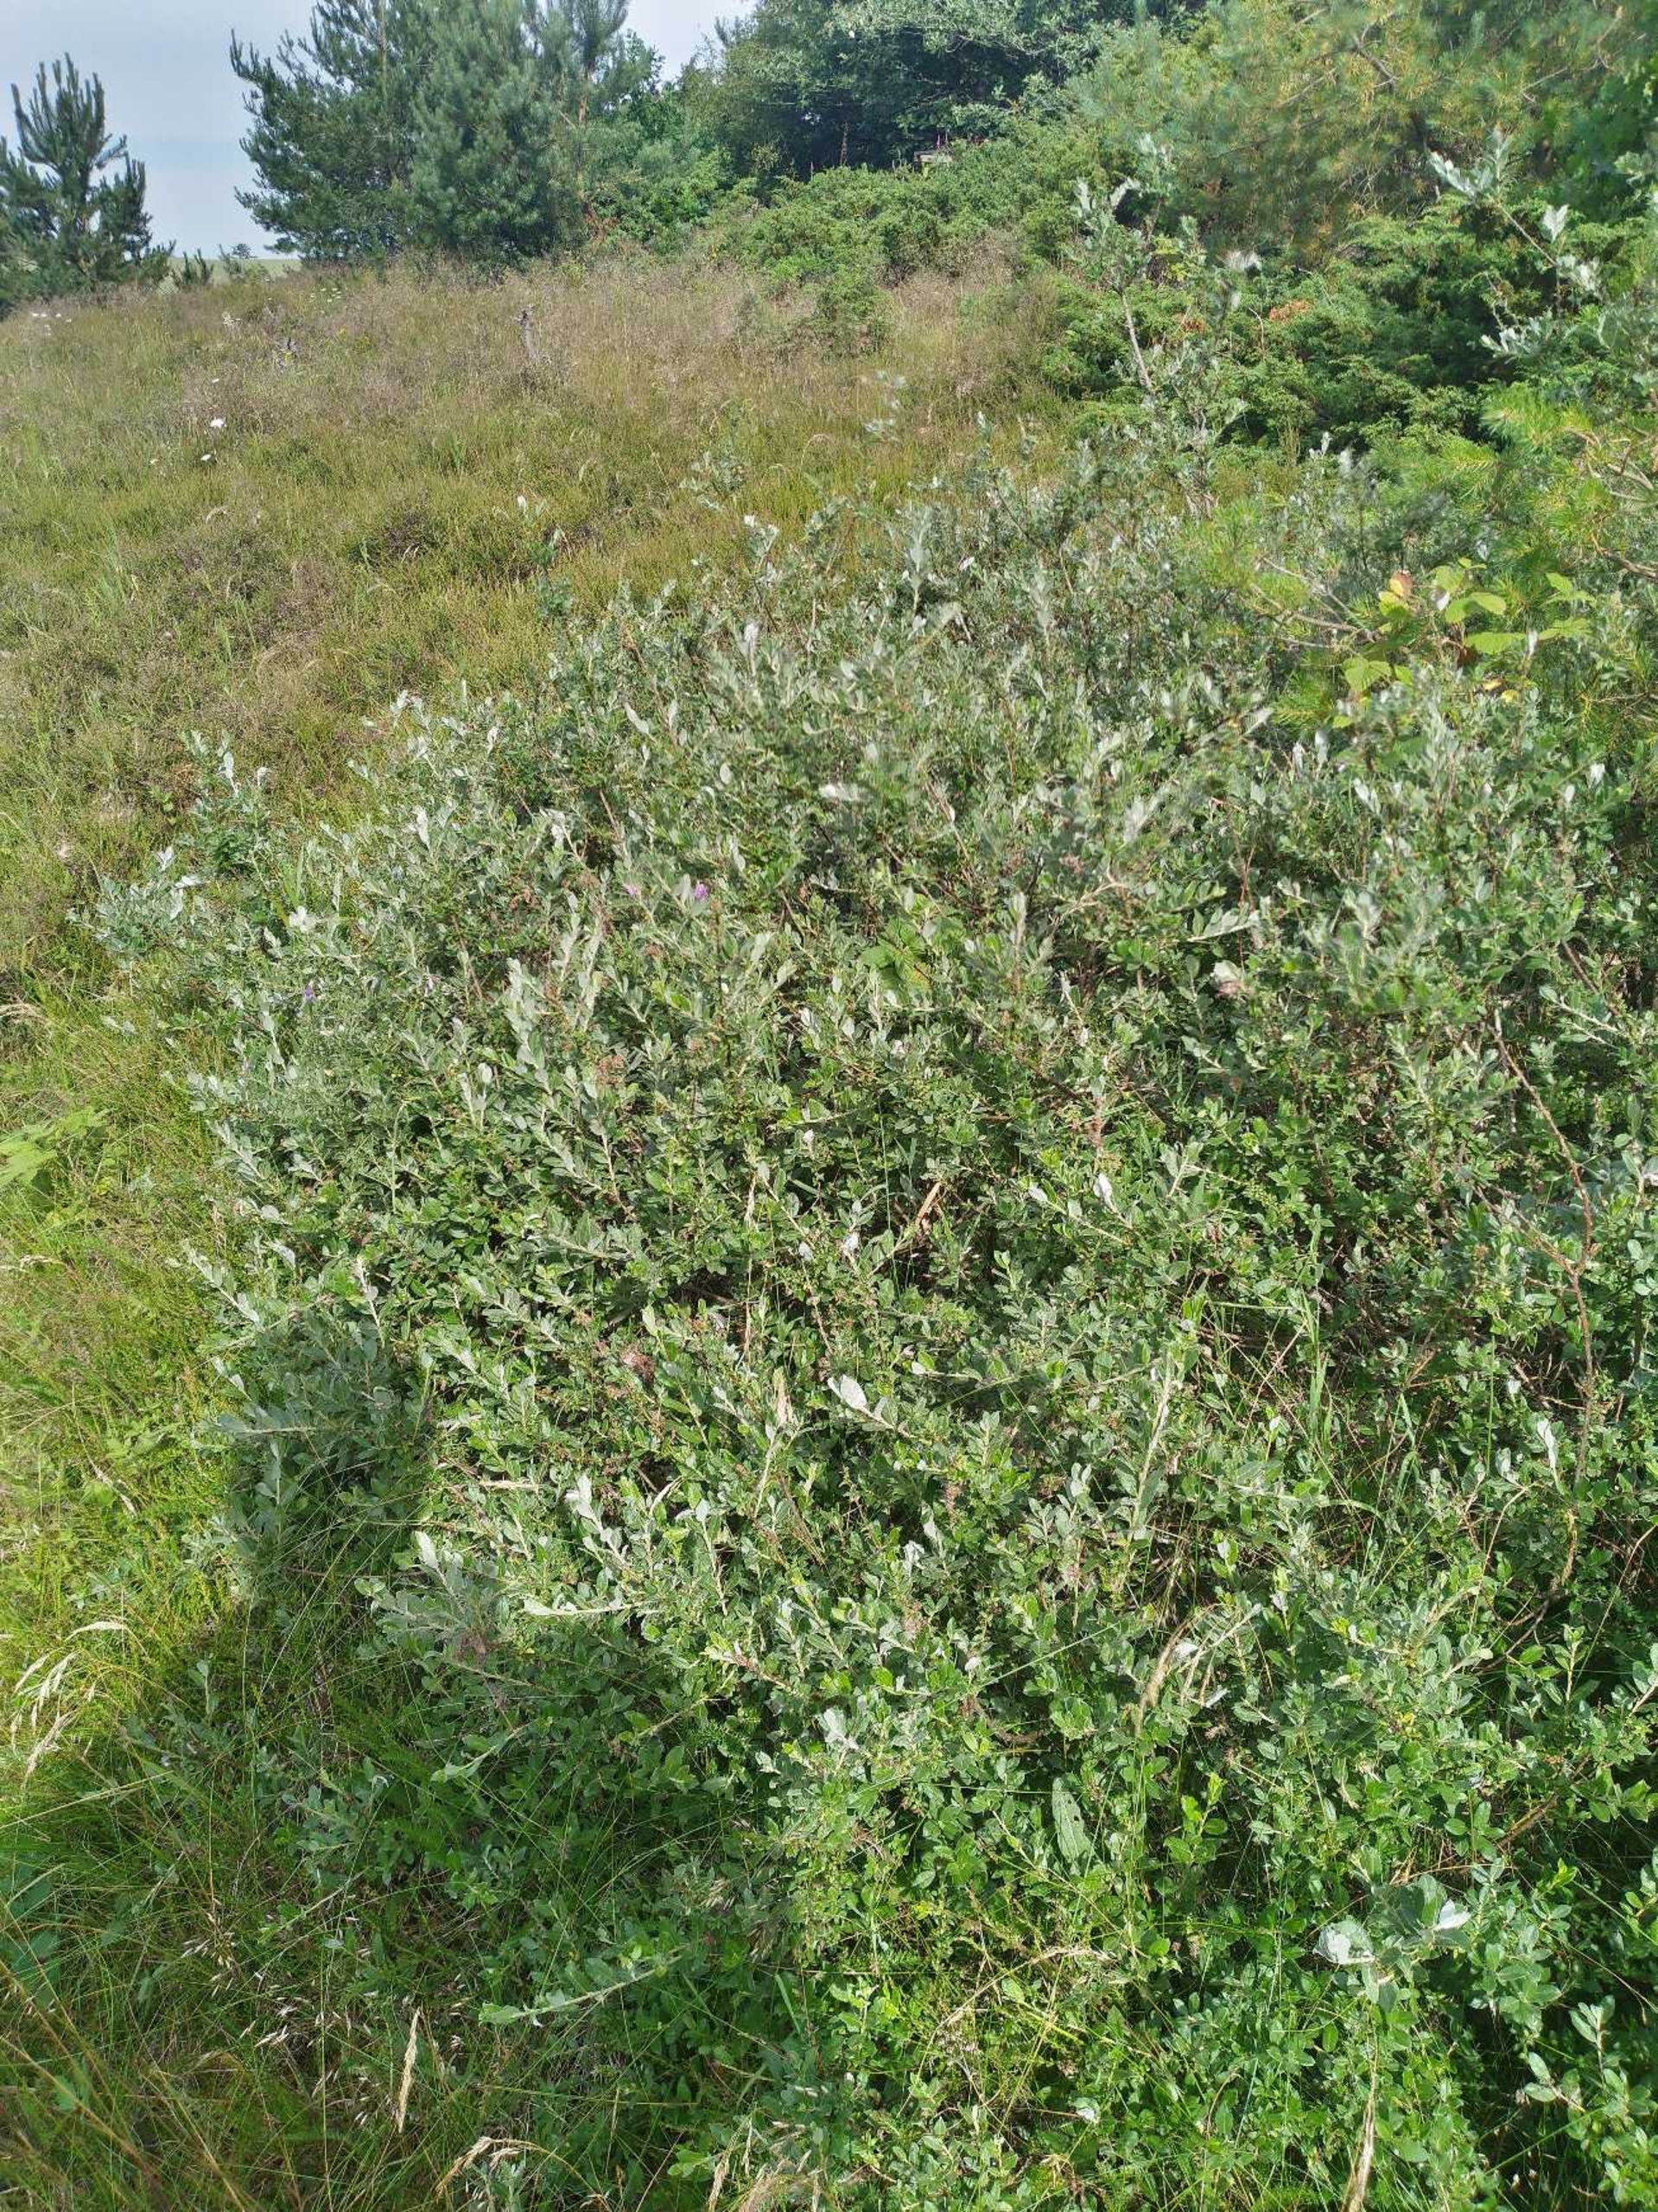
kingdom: Plantae
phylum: Tracheophyta
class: Magnoliopsida
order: Malpighiales
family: Salicaceae
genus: Salix
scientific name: Salix repens
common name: Krybende pil
